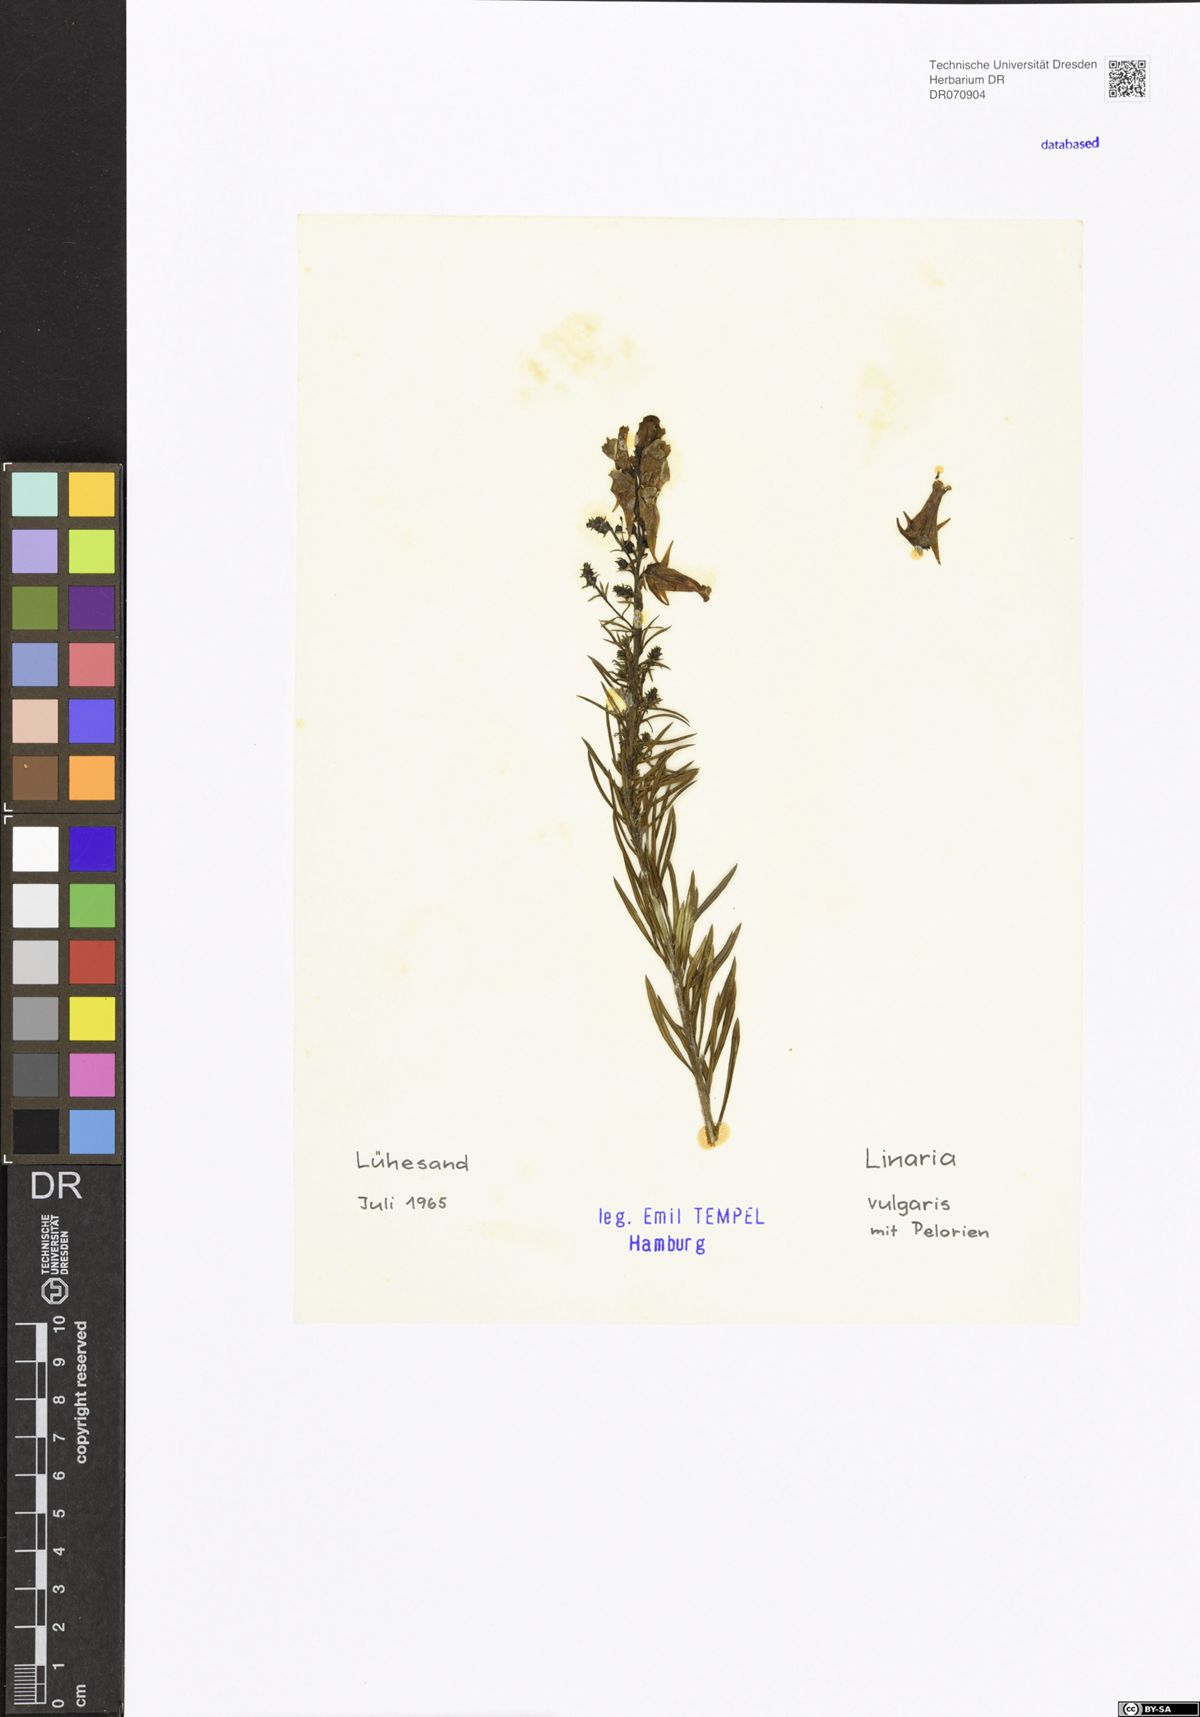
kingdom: Plantae
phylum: Tracheophyta
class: Magnoliopsida
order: Lamiales
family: Plantaginaceae
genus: Linaria
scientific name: Linaria vulgaris
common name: Butter and eggs
